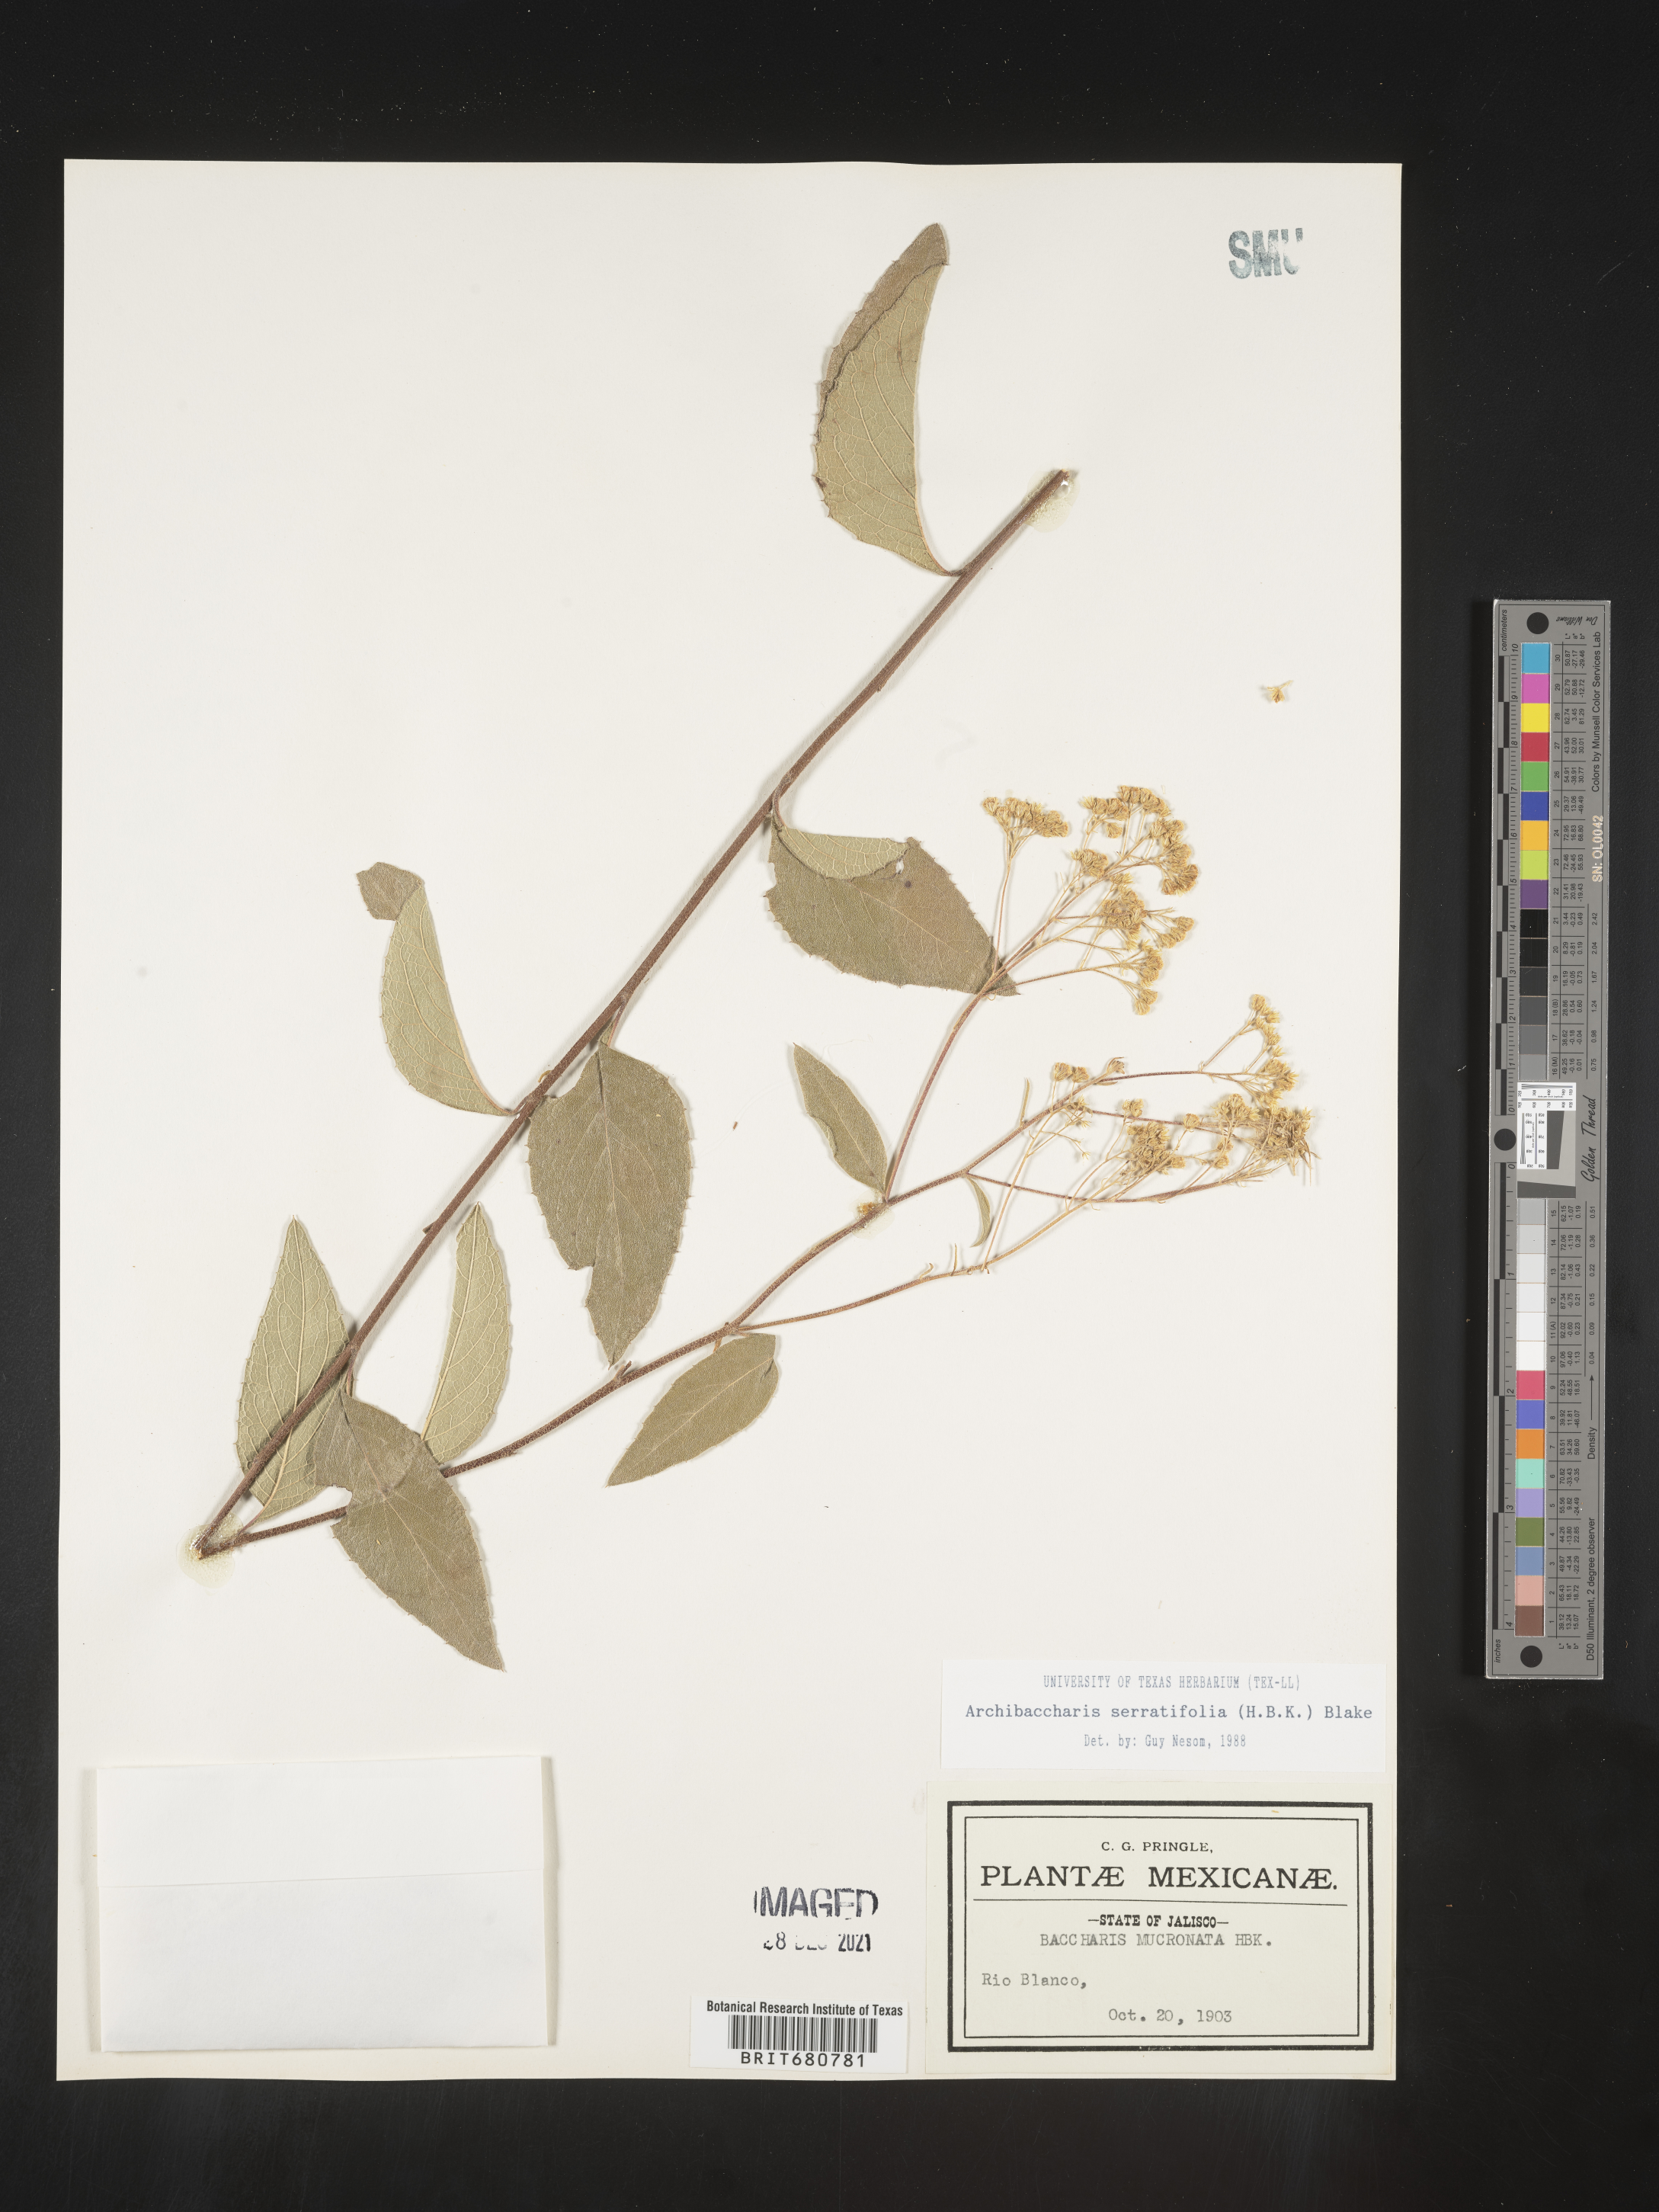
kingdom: Plantae
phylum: Tracheophyta
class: Magnoliopsida
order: Asterales
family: Asteraceae
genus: Archibaccharis
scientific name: Archibaccharis
